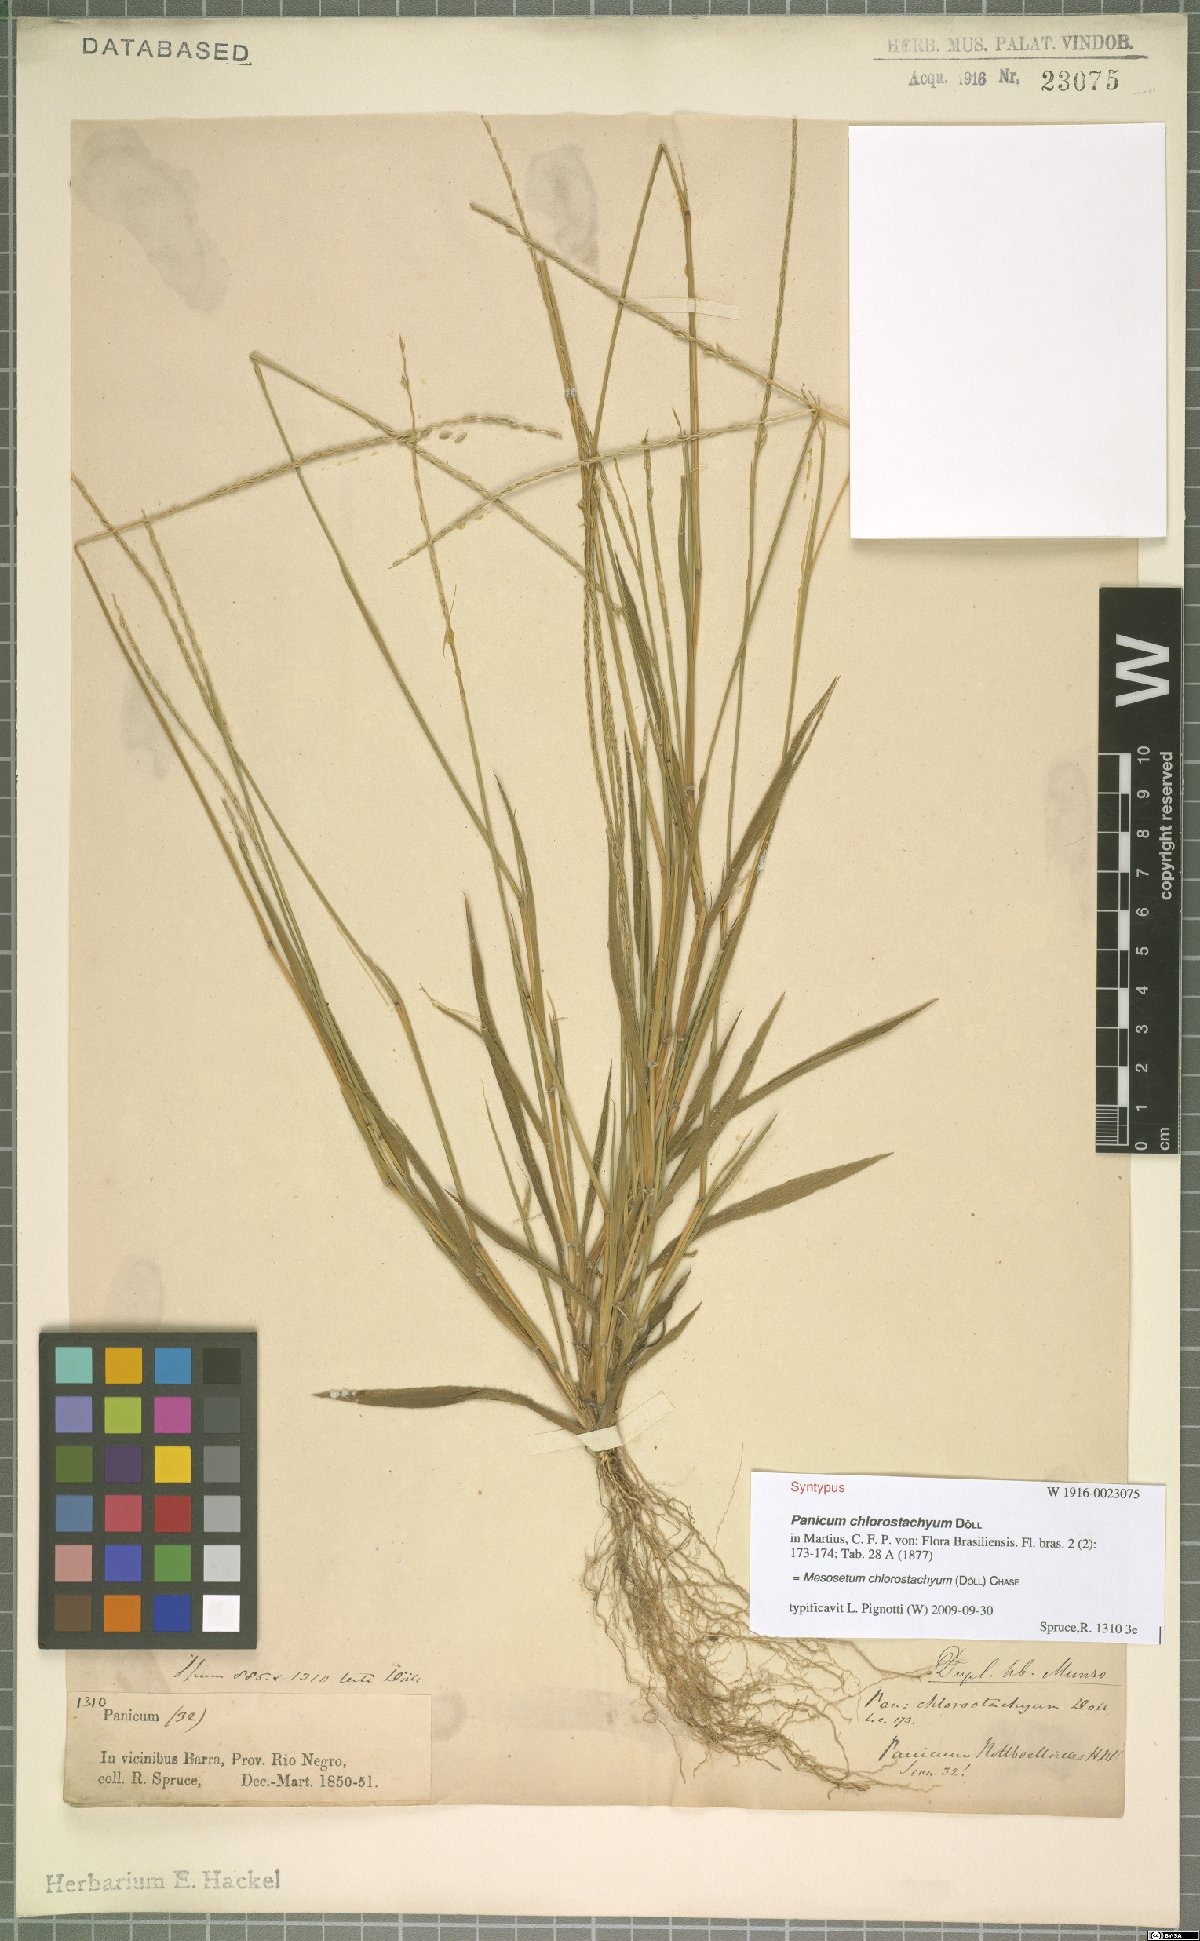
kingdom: Plantae
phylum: Tracheophyta
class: Liliopsida
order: Poales
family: Poaceae
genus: Mesosetum
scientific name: Mesosetum chlorostachyum
